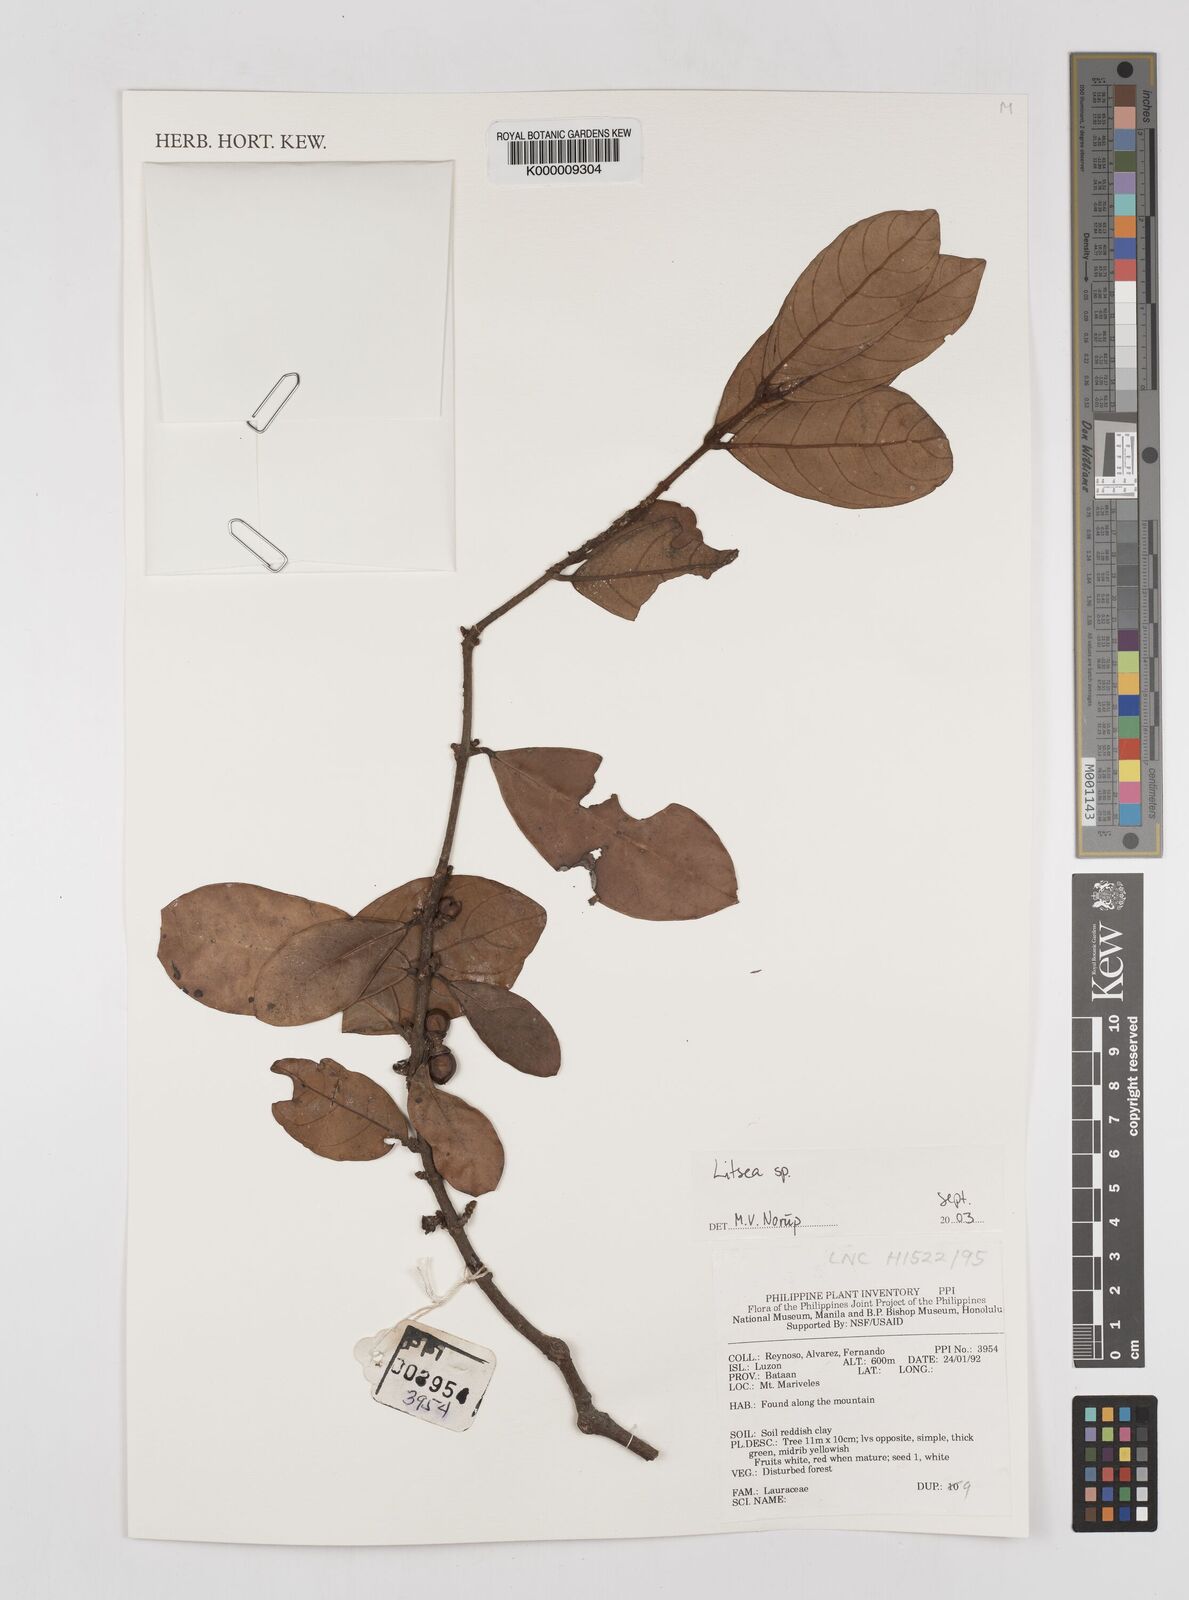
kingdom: Plantae
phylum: Tracheophyta
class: Magnoliopsida
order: Laurales
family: Lauraceae
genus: Litsea
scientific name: Litsea
